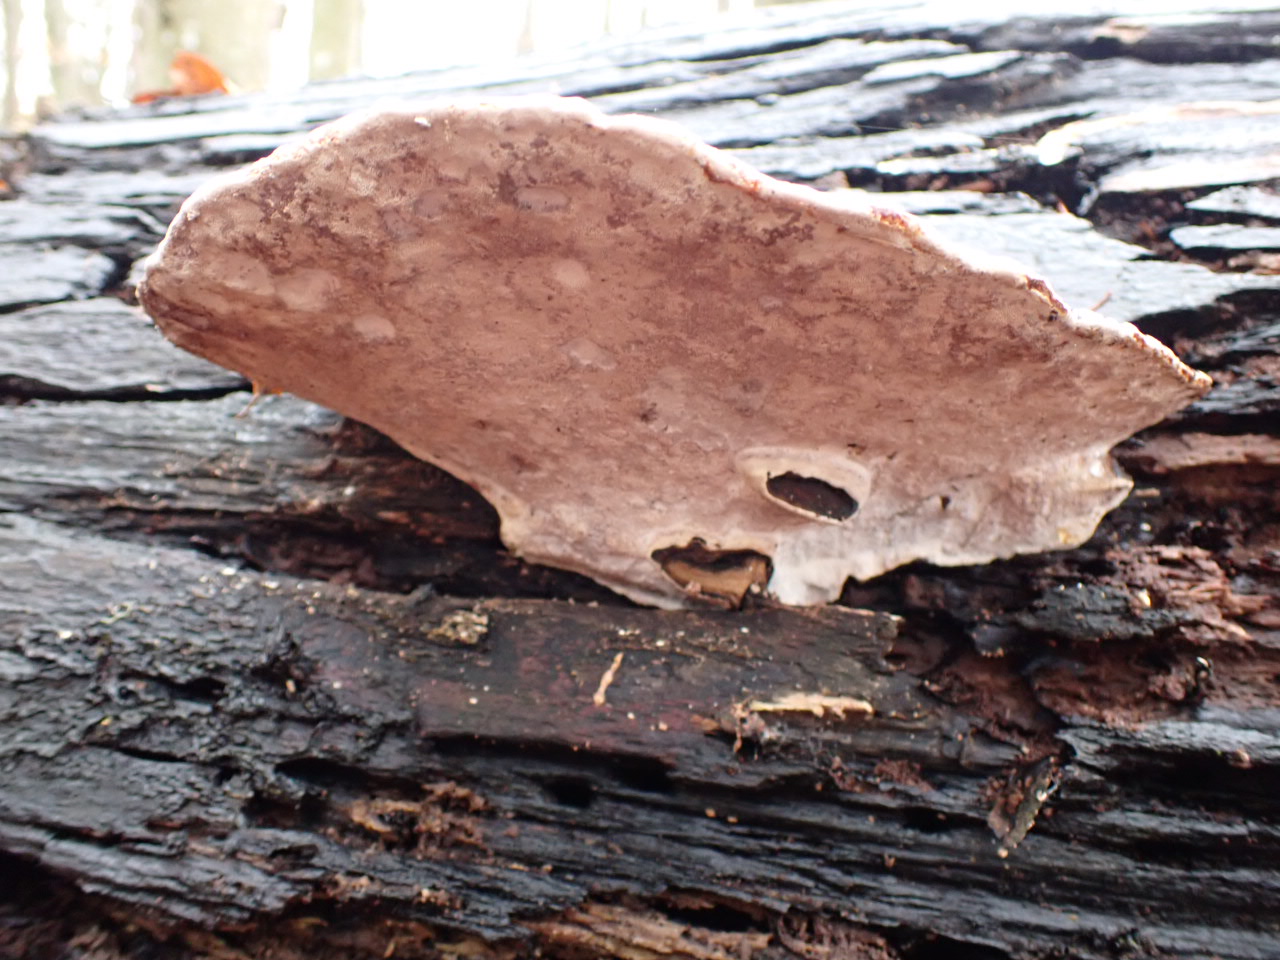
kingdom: Fungi
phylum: Basidiomycota
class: Agaricomycetes
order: Polyporales
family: Polyporaceae
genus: Ganoderma
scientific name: Ganoderma applanatum
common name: flad lakporesvamp
